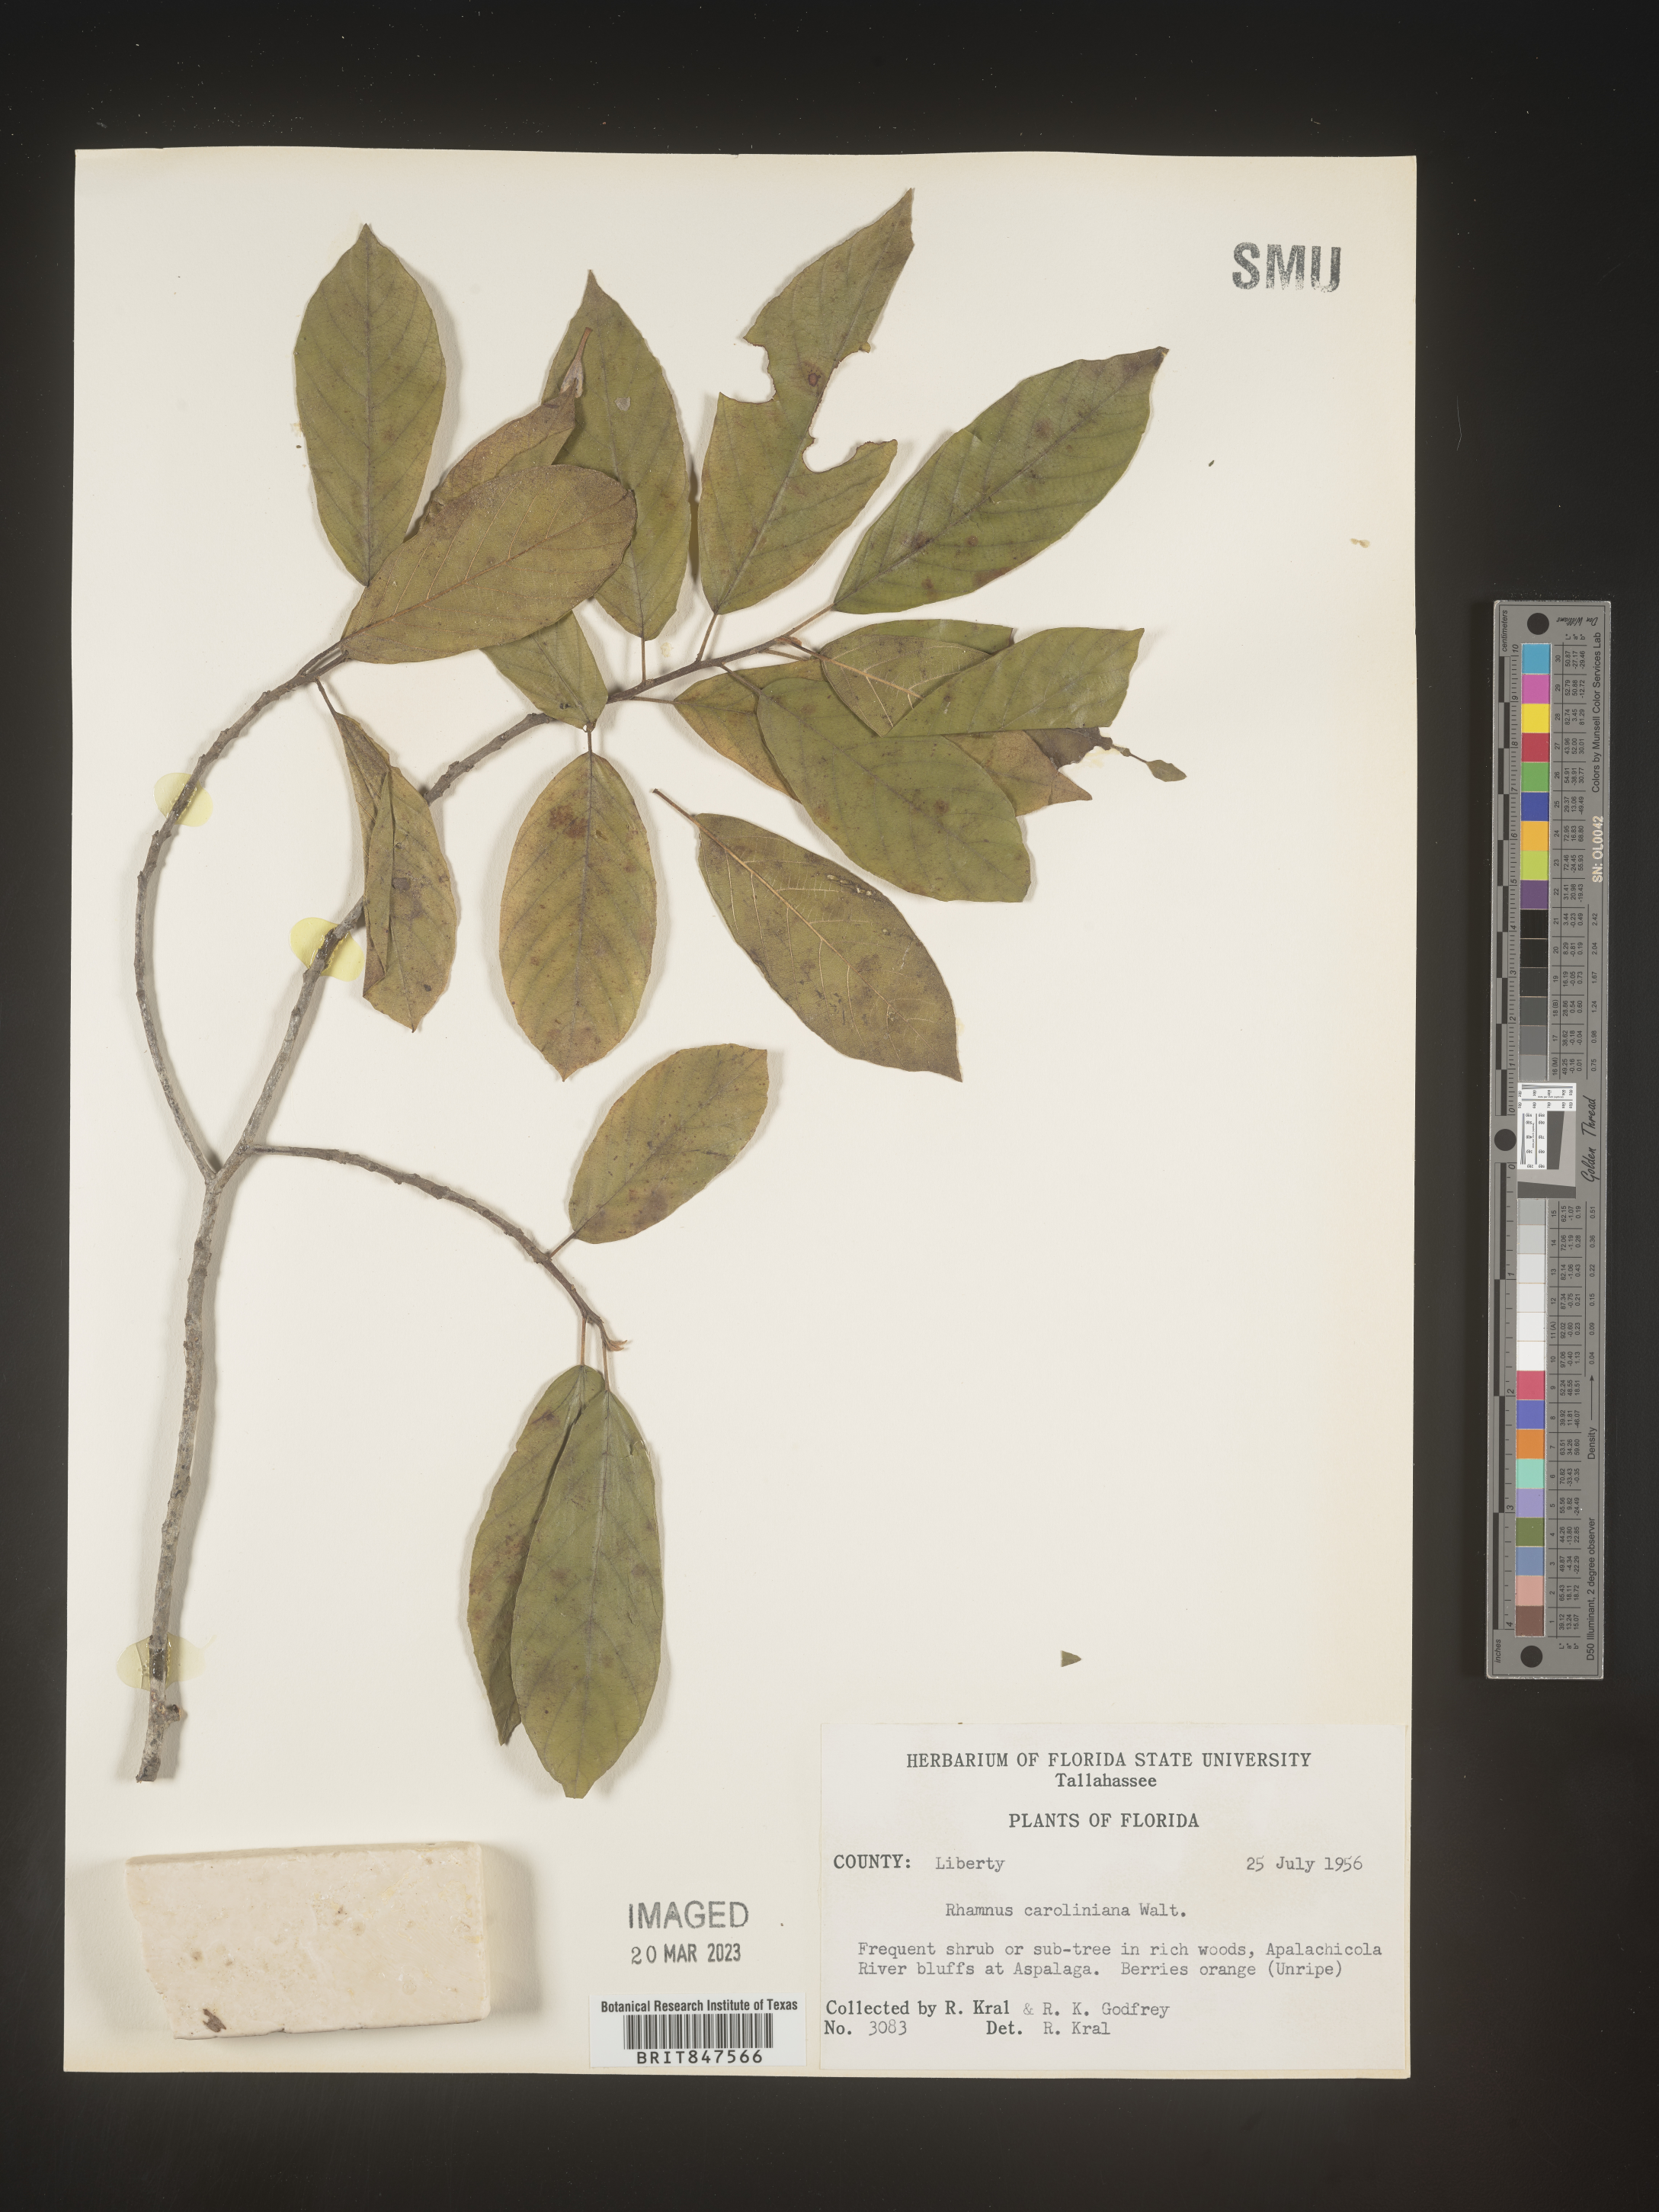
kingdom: Plantae
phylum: Tracheophyta
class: Magnoliopsida
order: Rosales
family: Rhamnaceae
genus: Frangula
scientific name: Frangula caroliniana
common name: Carolina buckthorn
